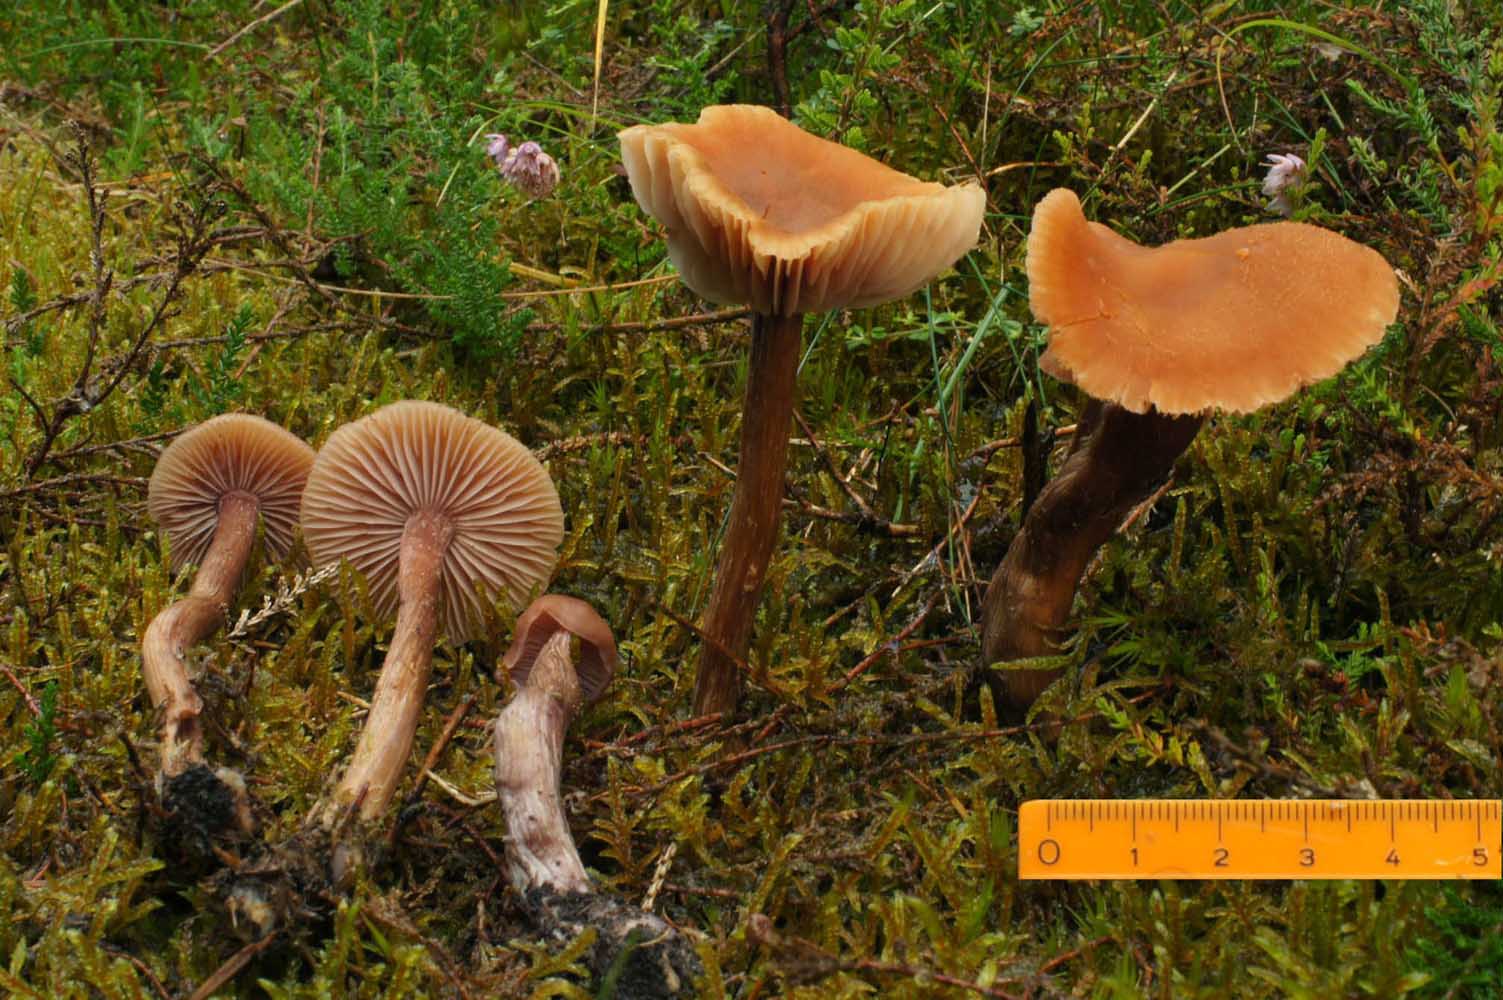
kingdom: Fungi
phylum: Basidiomycota
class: Agaricomycetes
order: Agaricales
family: Hydnangiaceae
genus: Laccaria
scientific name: Laccaria bicolor
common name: tvefarvet ametysthat
